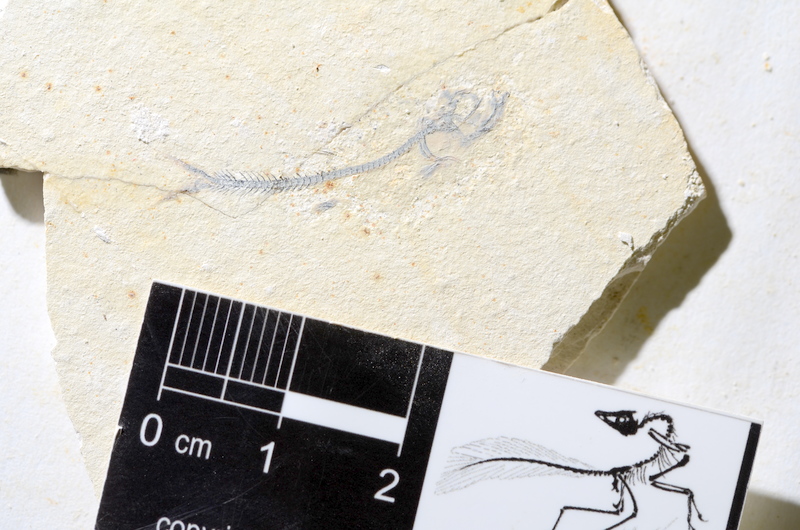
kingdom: Animalia
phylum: Chordata
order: Salmoniformes
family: Orthogonikleithridae
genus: Orthogonikleithrus
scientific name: Orthogonikleithrus hoelli
